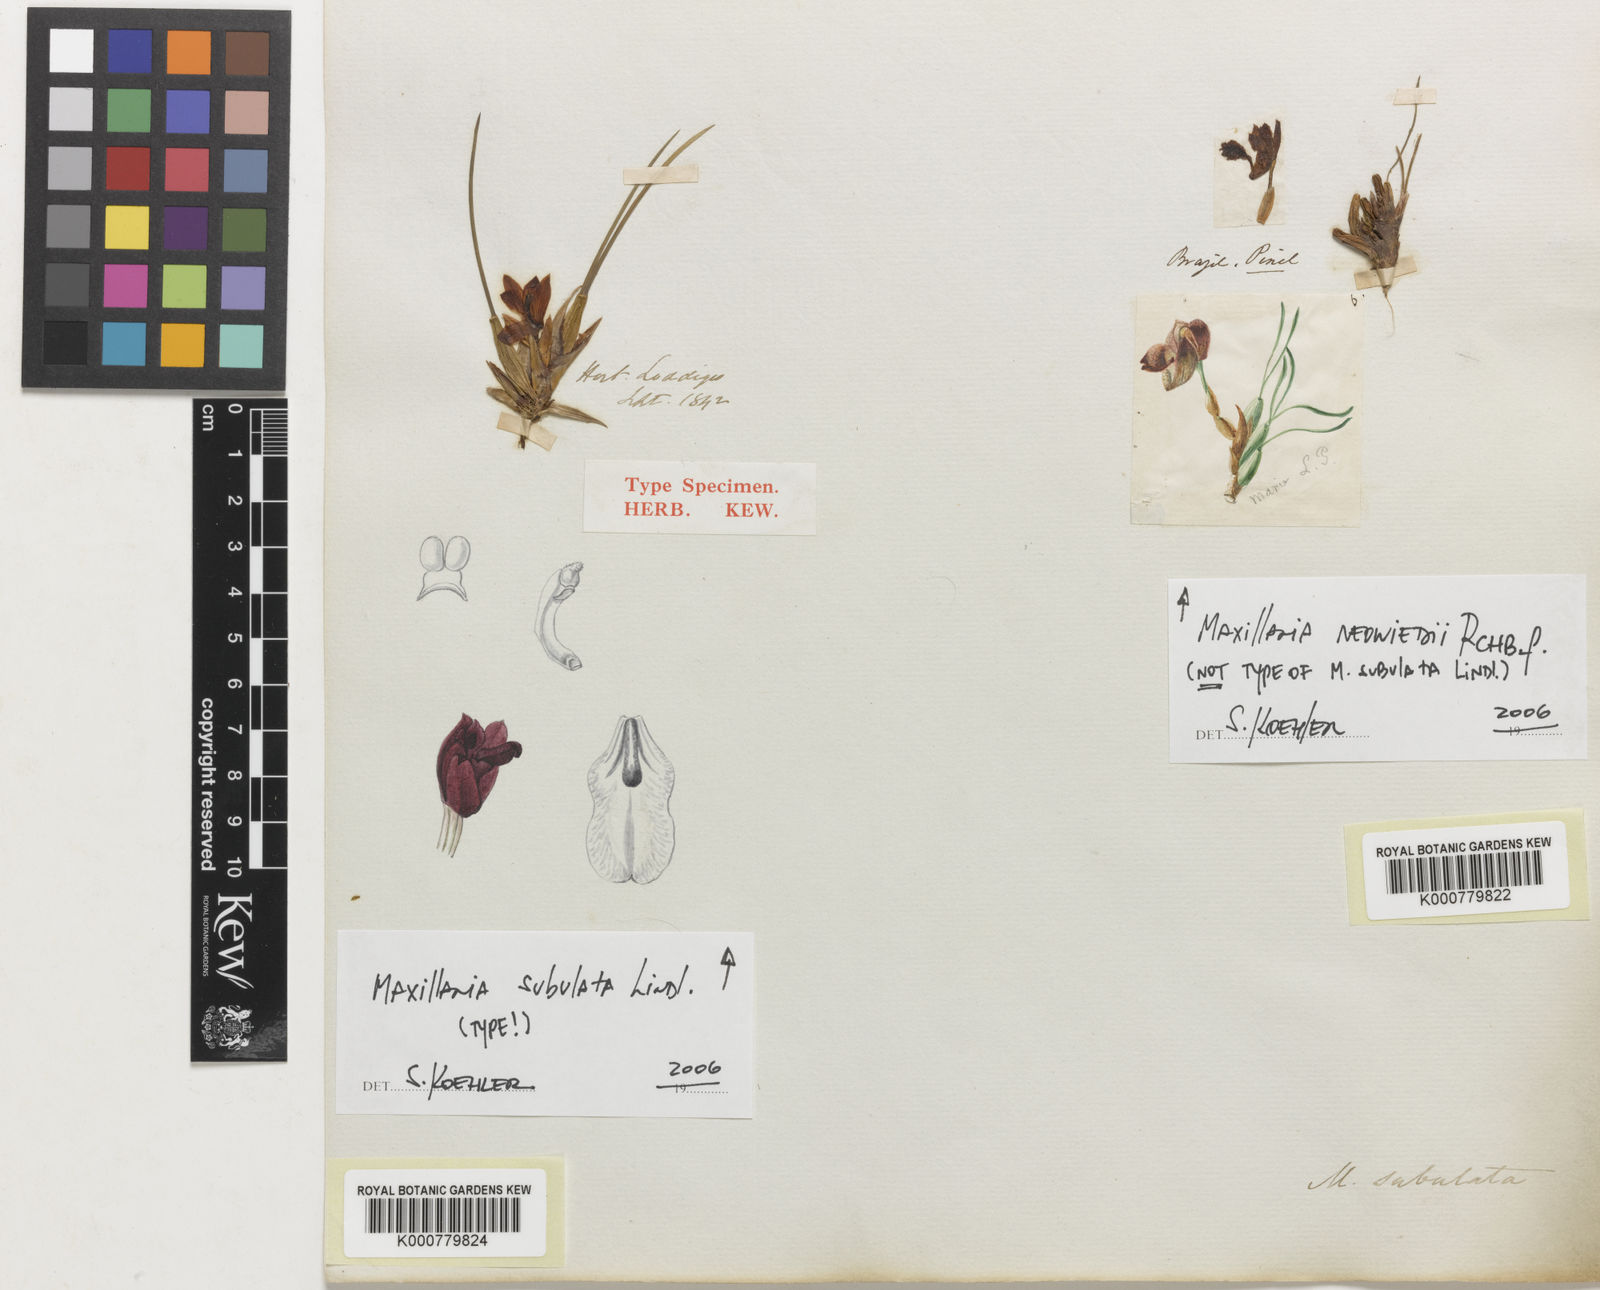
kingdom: Plantae
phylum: Tracheophyta
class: Liliopsida
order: Asparagales
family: Orchidaceae
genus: Maxillaria
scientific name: Maxillaria subulata
